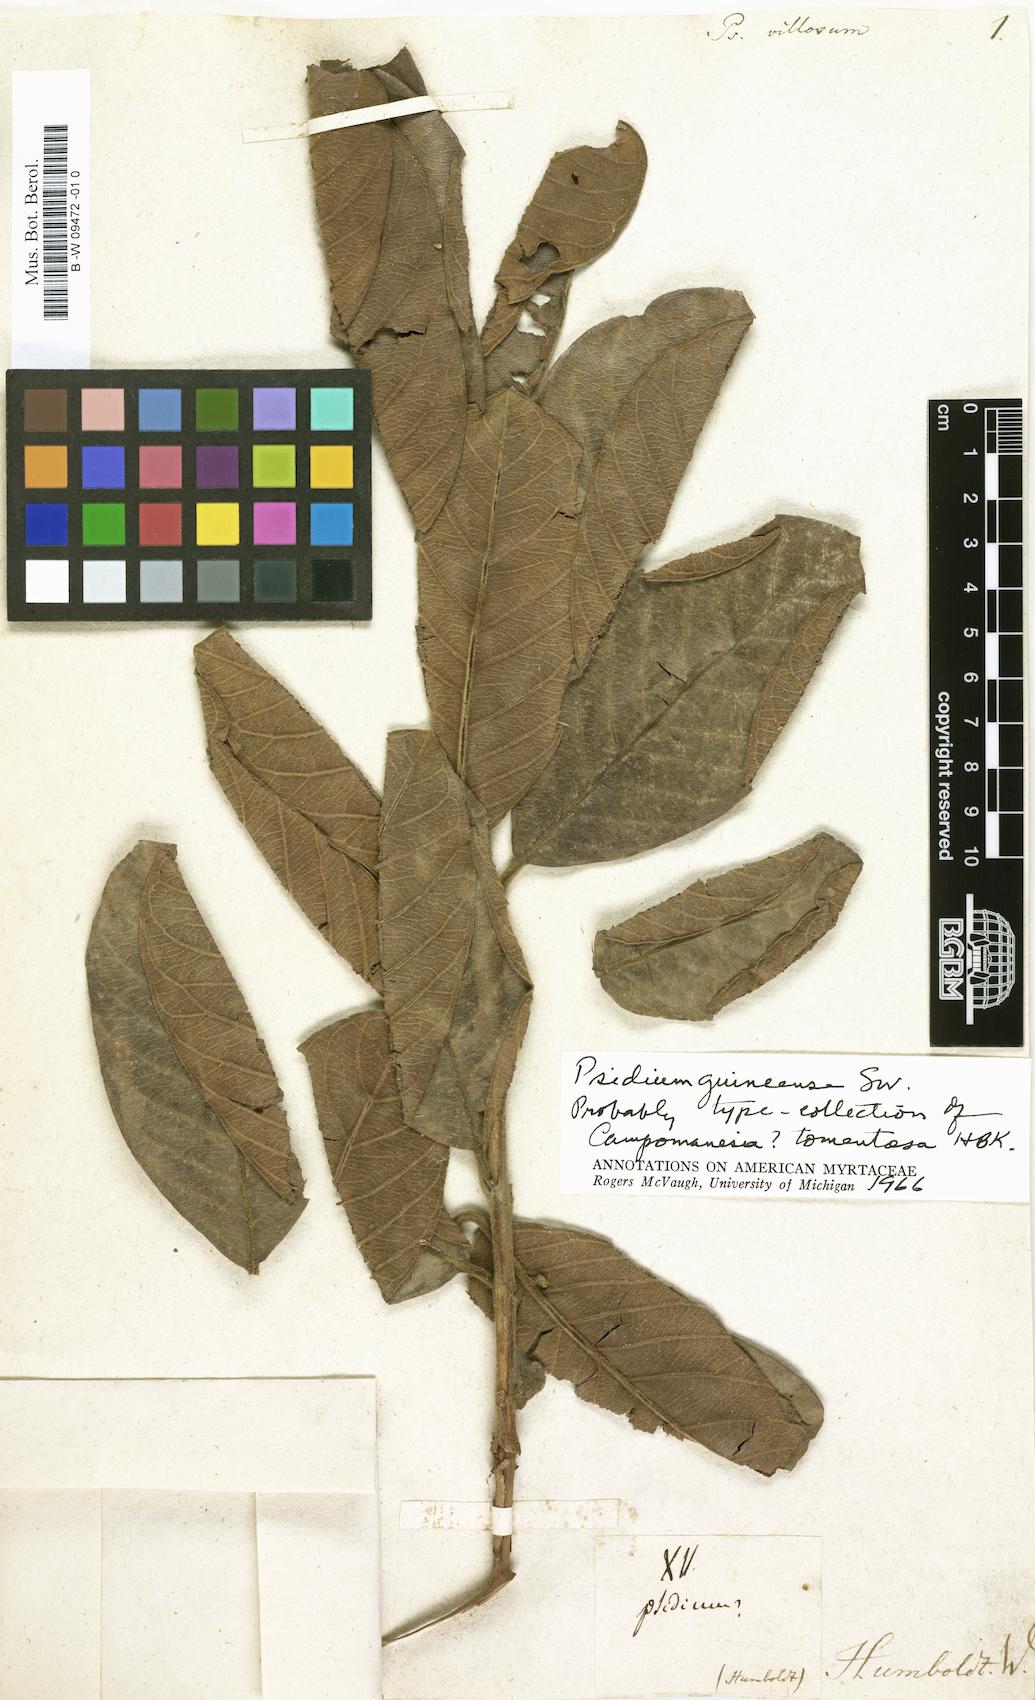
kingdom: Plantae
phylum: Tracheophyta
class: Magnoliopsida
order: Myrtales
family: Myrtaceae
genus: Psidium
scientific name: Psidium
